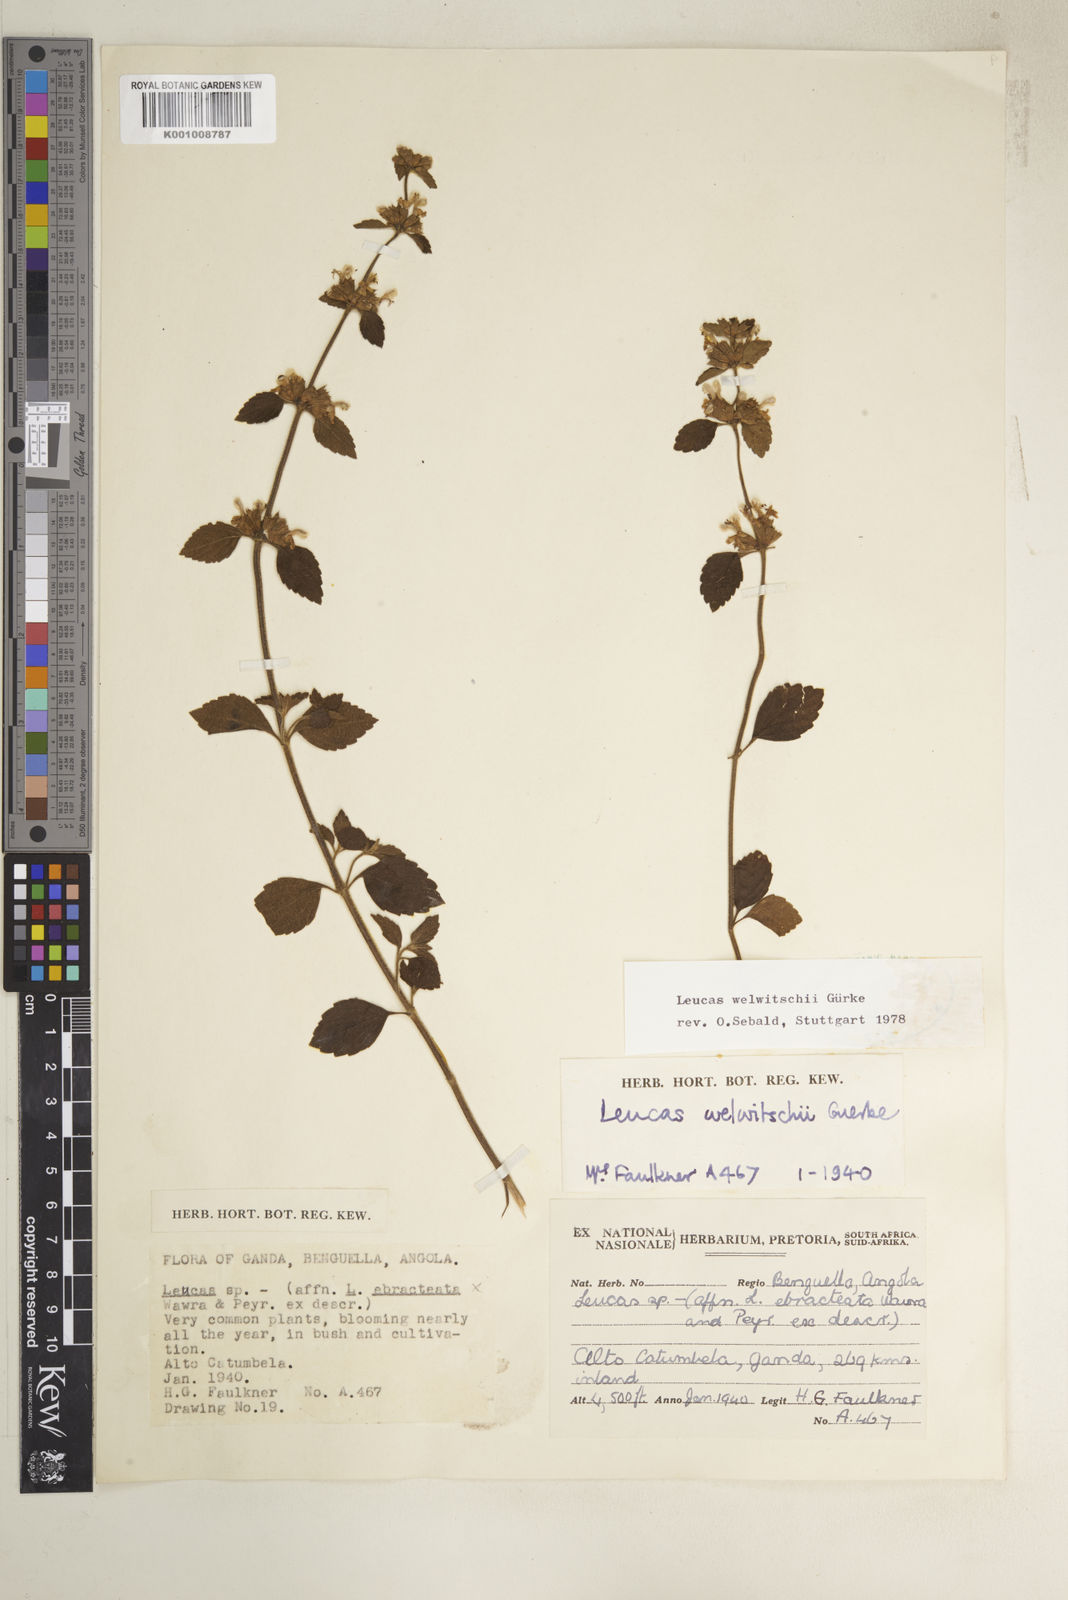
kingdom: Plantae
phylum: Tracheophyta
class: Magnoliopsida
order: Lamiales
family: Lamiaceae
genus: Leucas
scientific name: Leucas
